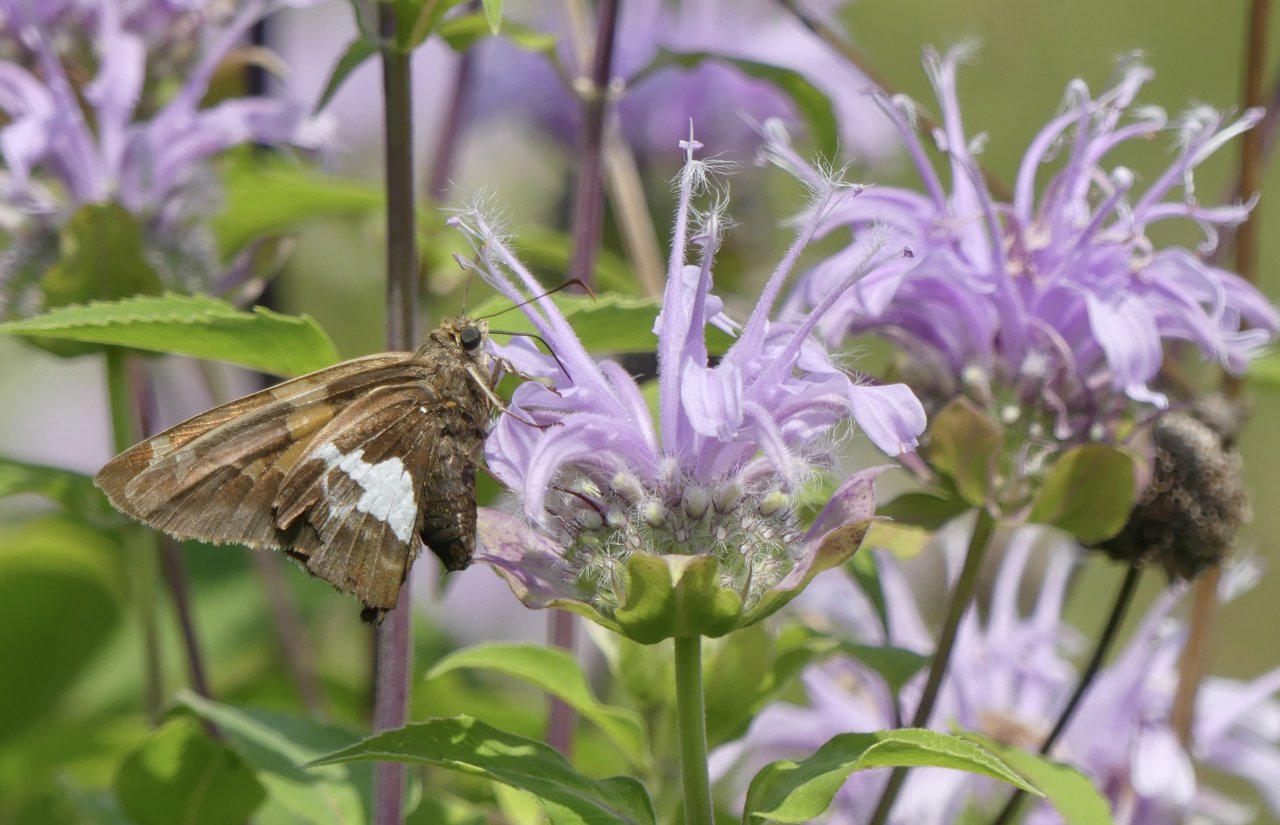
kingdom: Animalia
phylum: Arthropoda
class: Insecta
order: Lepidoptera
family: Hesperiidae
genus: Epargyreus
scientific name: Epargyreus clarus
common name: Silver-spotted Skipper
